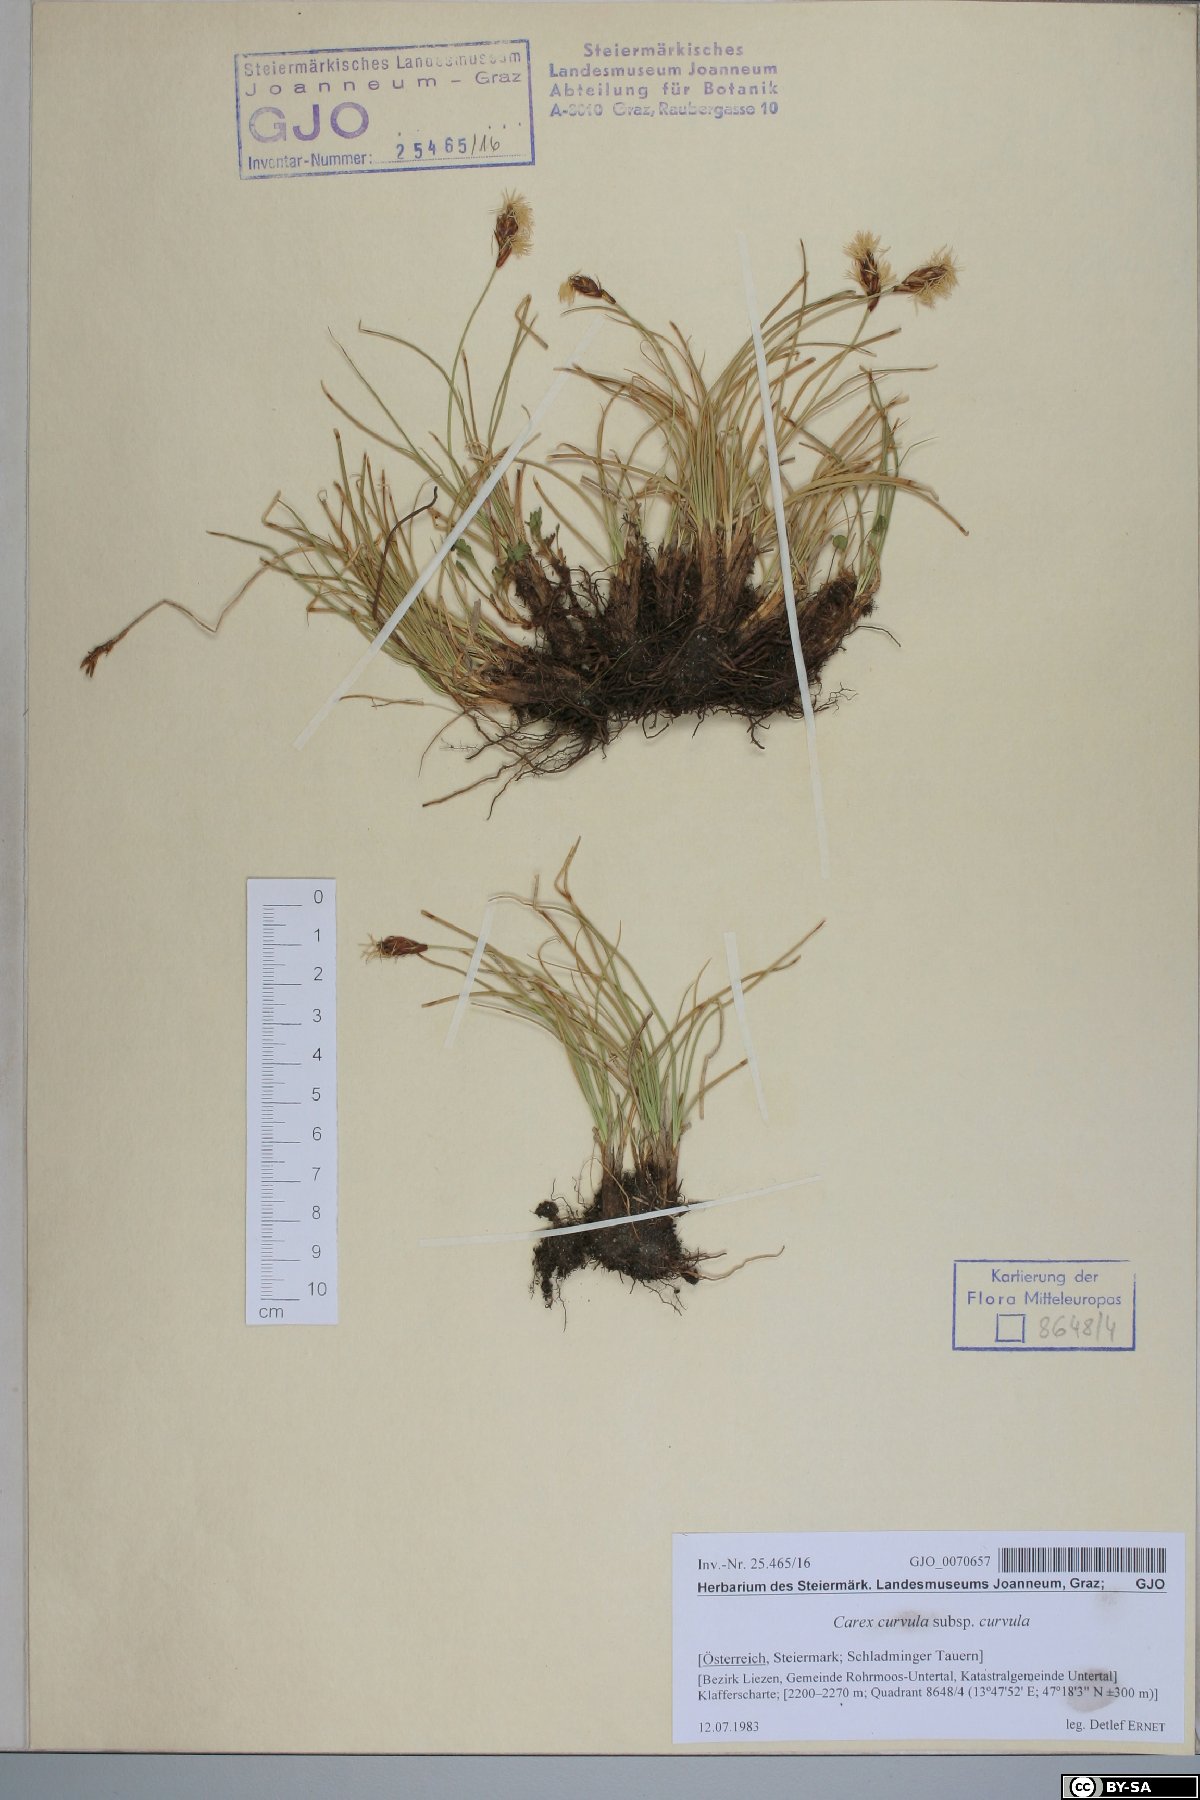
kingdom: Plantae
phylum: Tracheophyta
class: Liliopsida
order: Poales
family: Cyperaceae
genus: Carex
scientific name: Carex curvula
